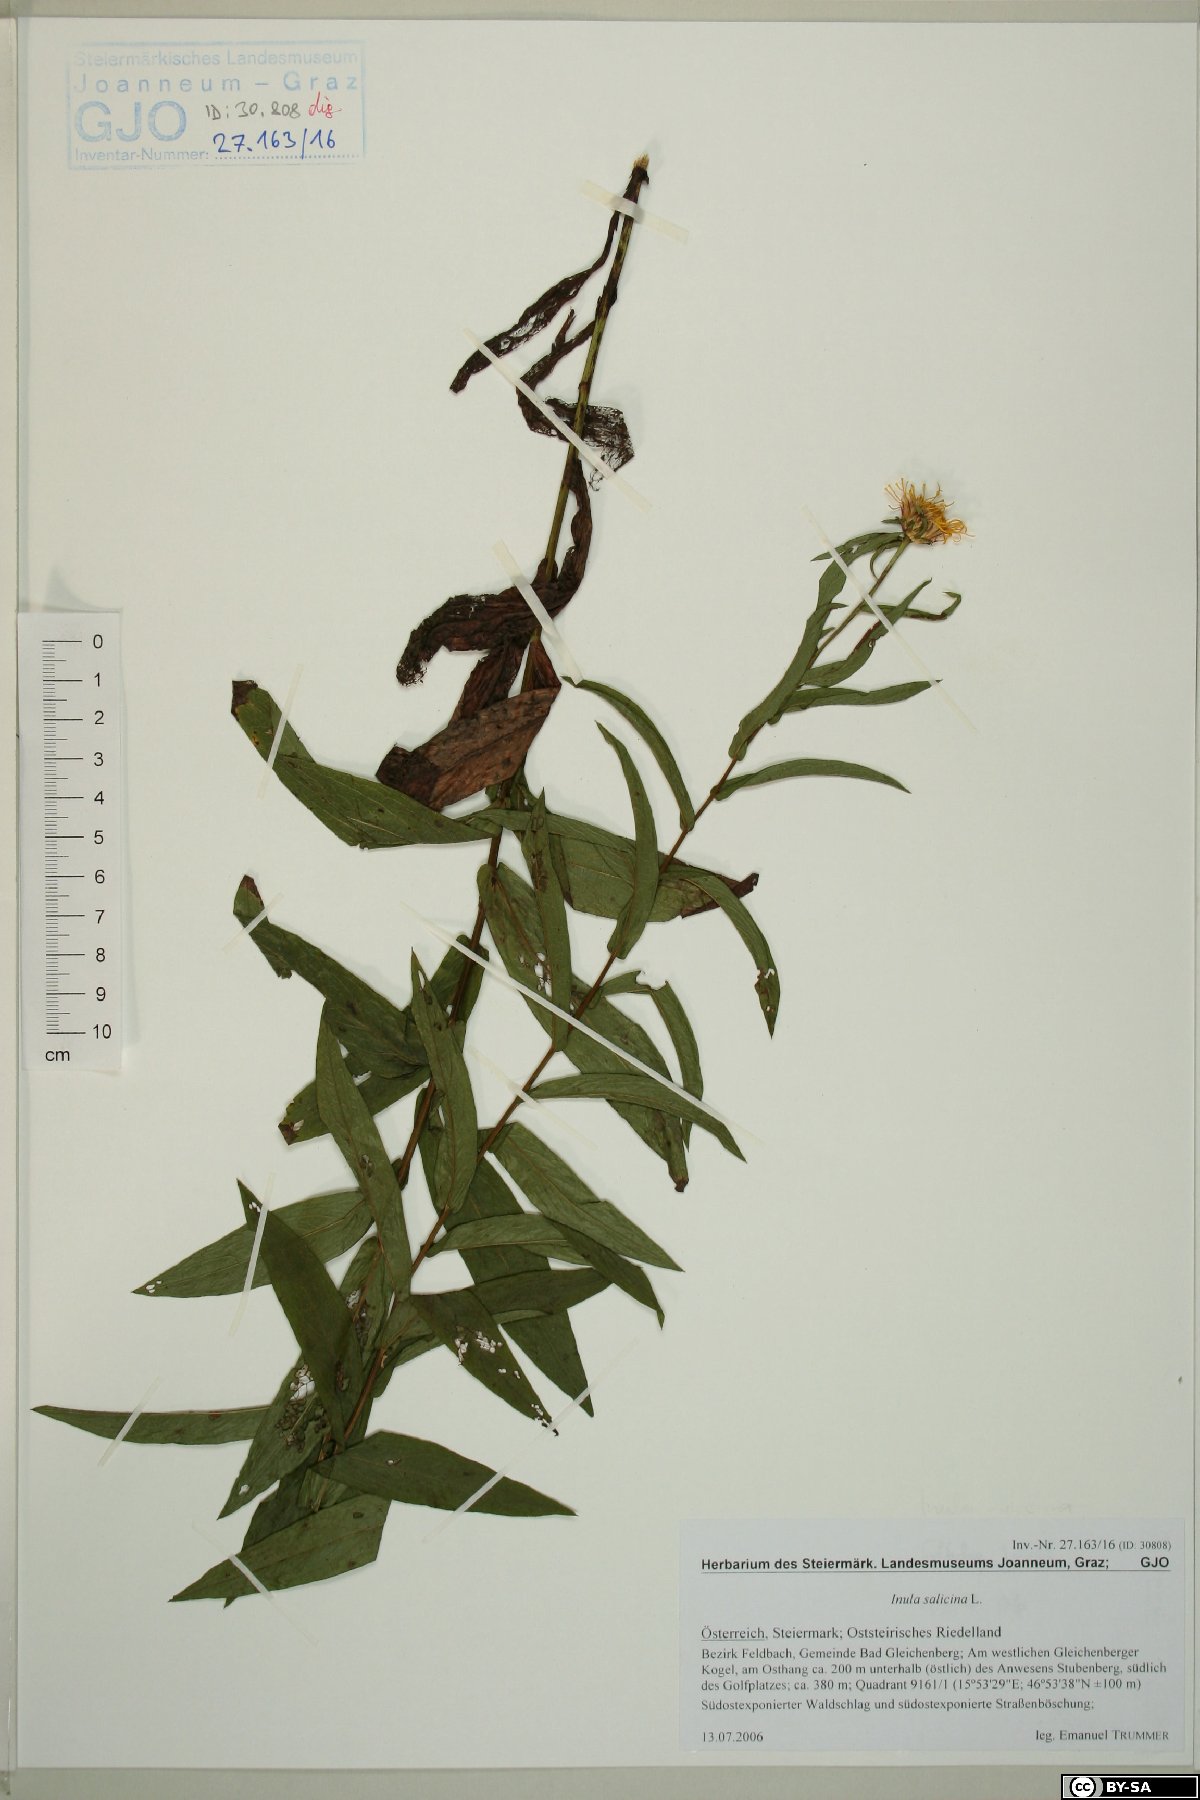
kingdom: Plantae
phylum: Tracheophyta
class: Magnoliopsida
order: Asterales
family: Asteraceae
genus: Pentanema
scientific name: Pentanema salicinum
